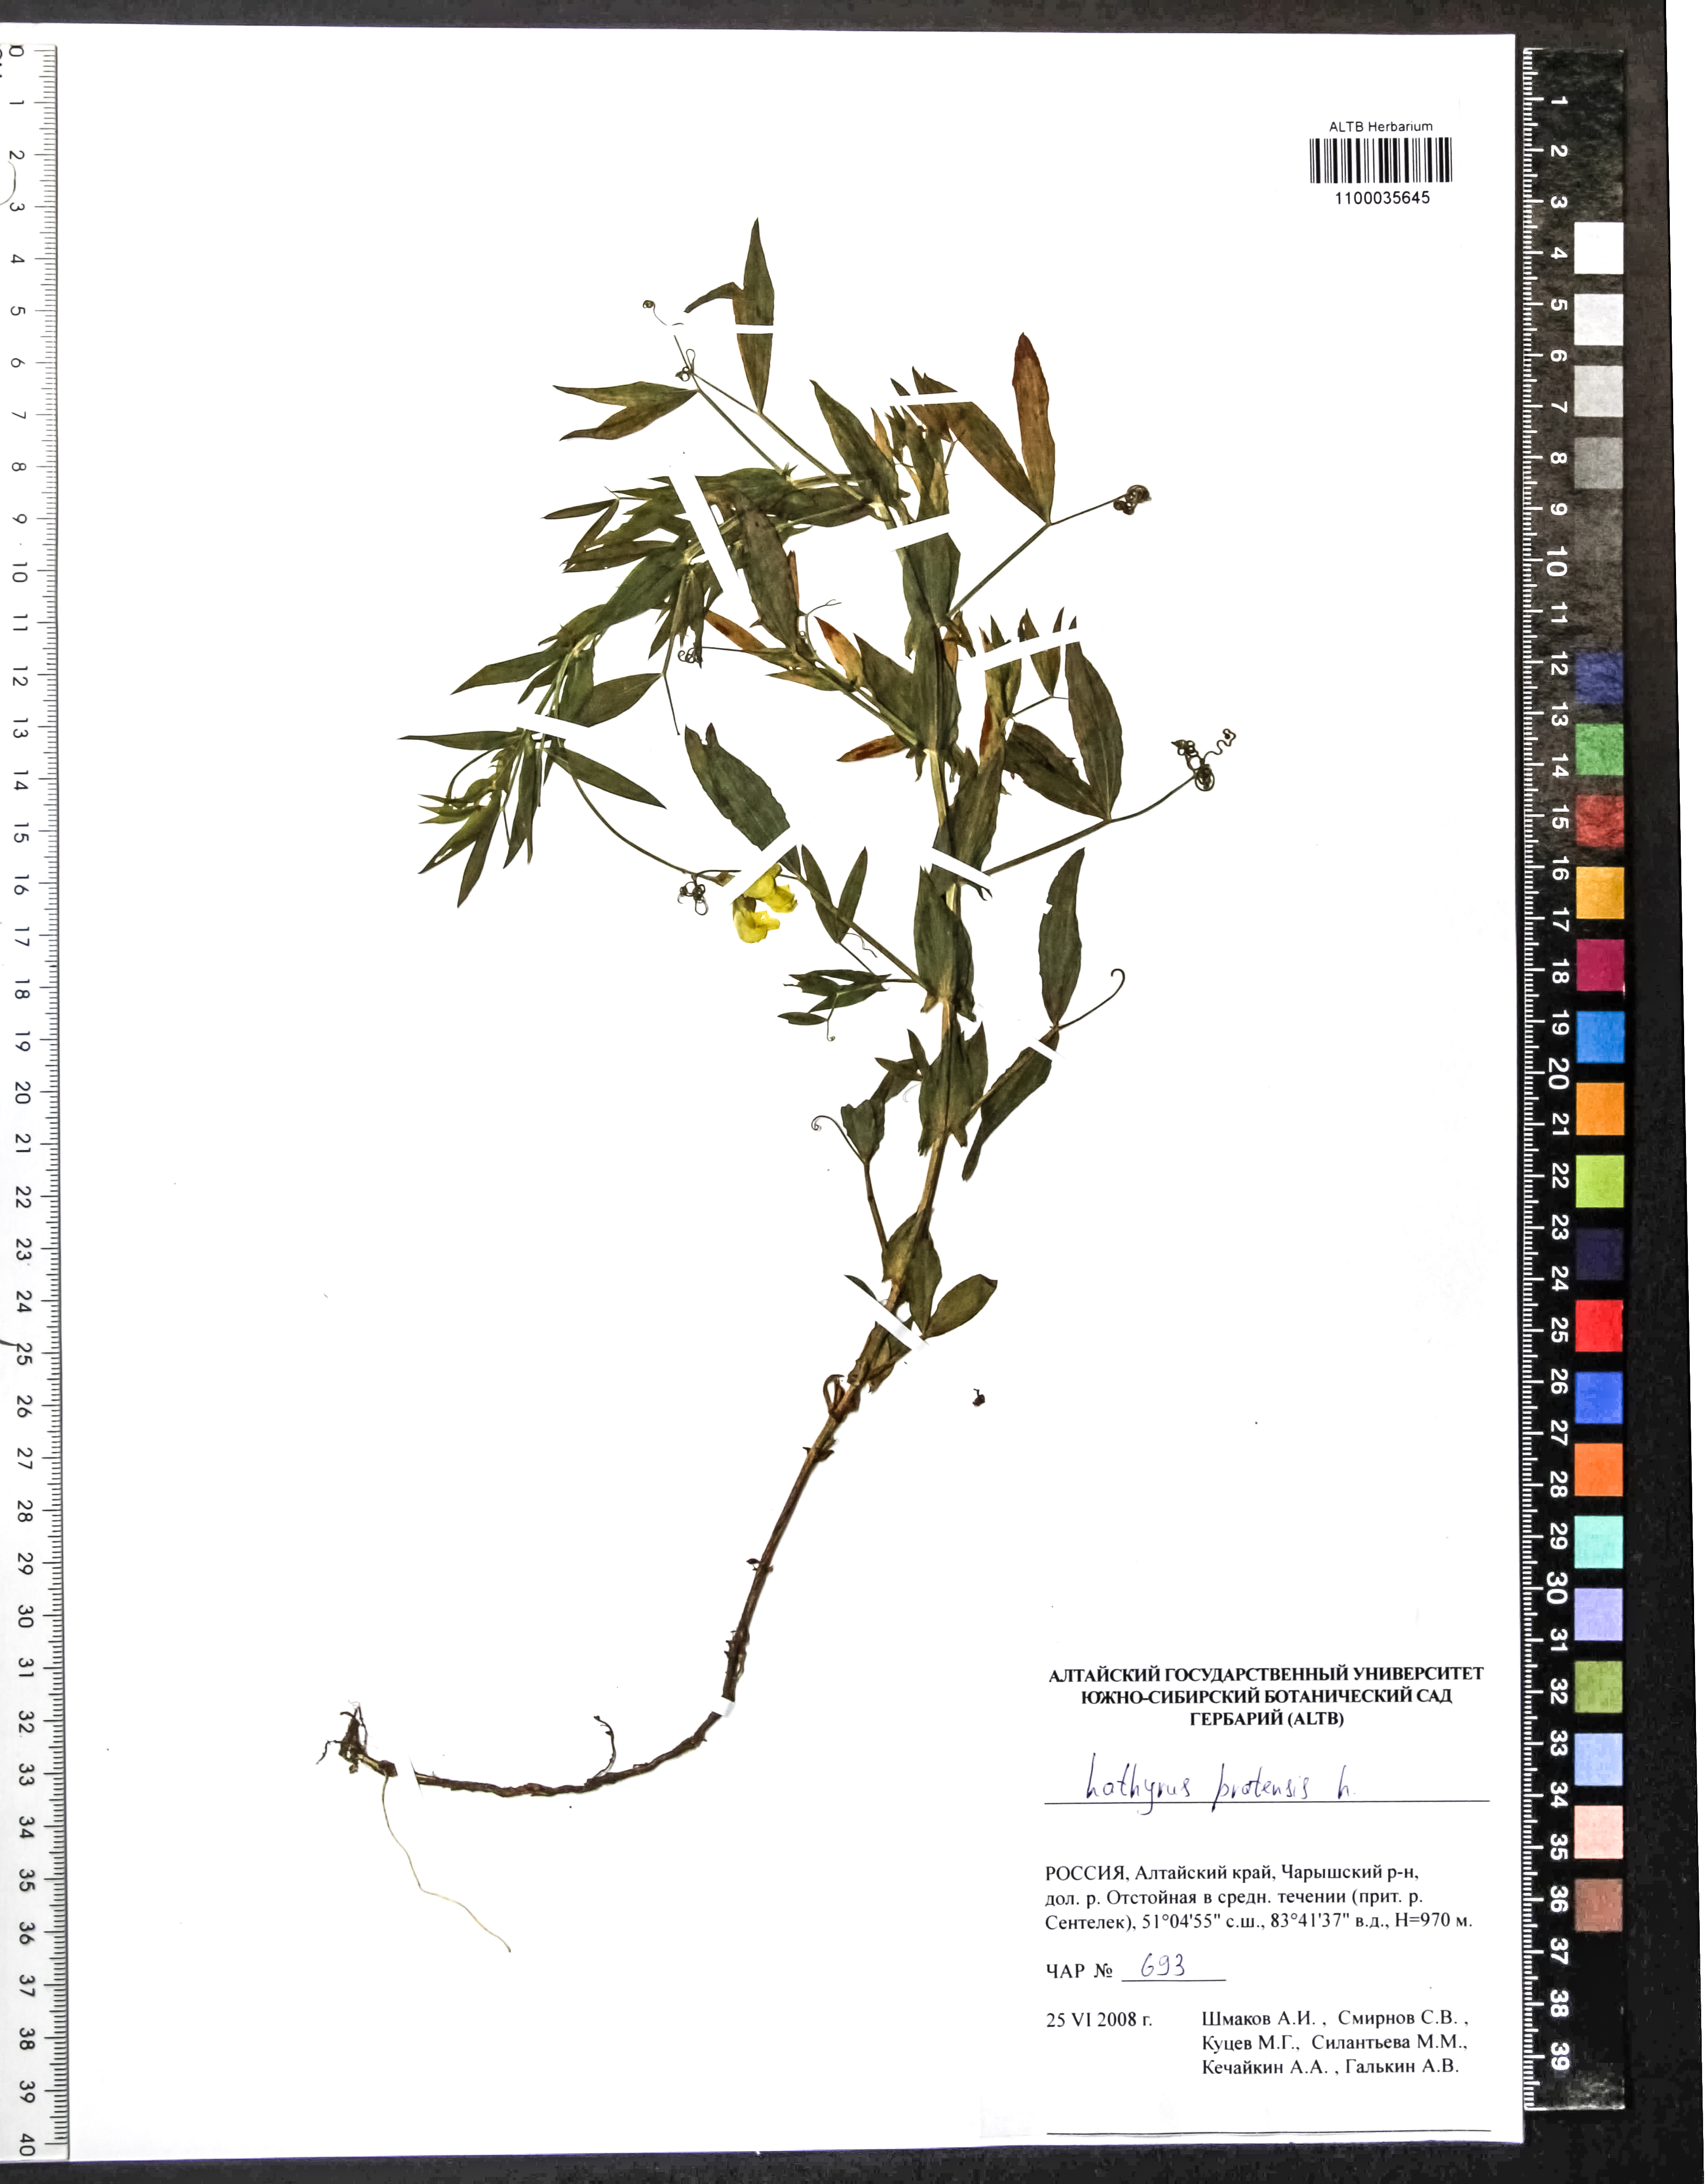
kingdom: Plantae
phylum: Tracheophyta
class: Magnoliopsida
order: Fabales
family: Fabaceae
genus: Lathyrus
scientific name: Lathyrus pratensis
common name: Meadow vetchling
